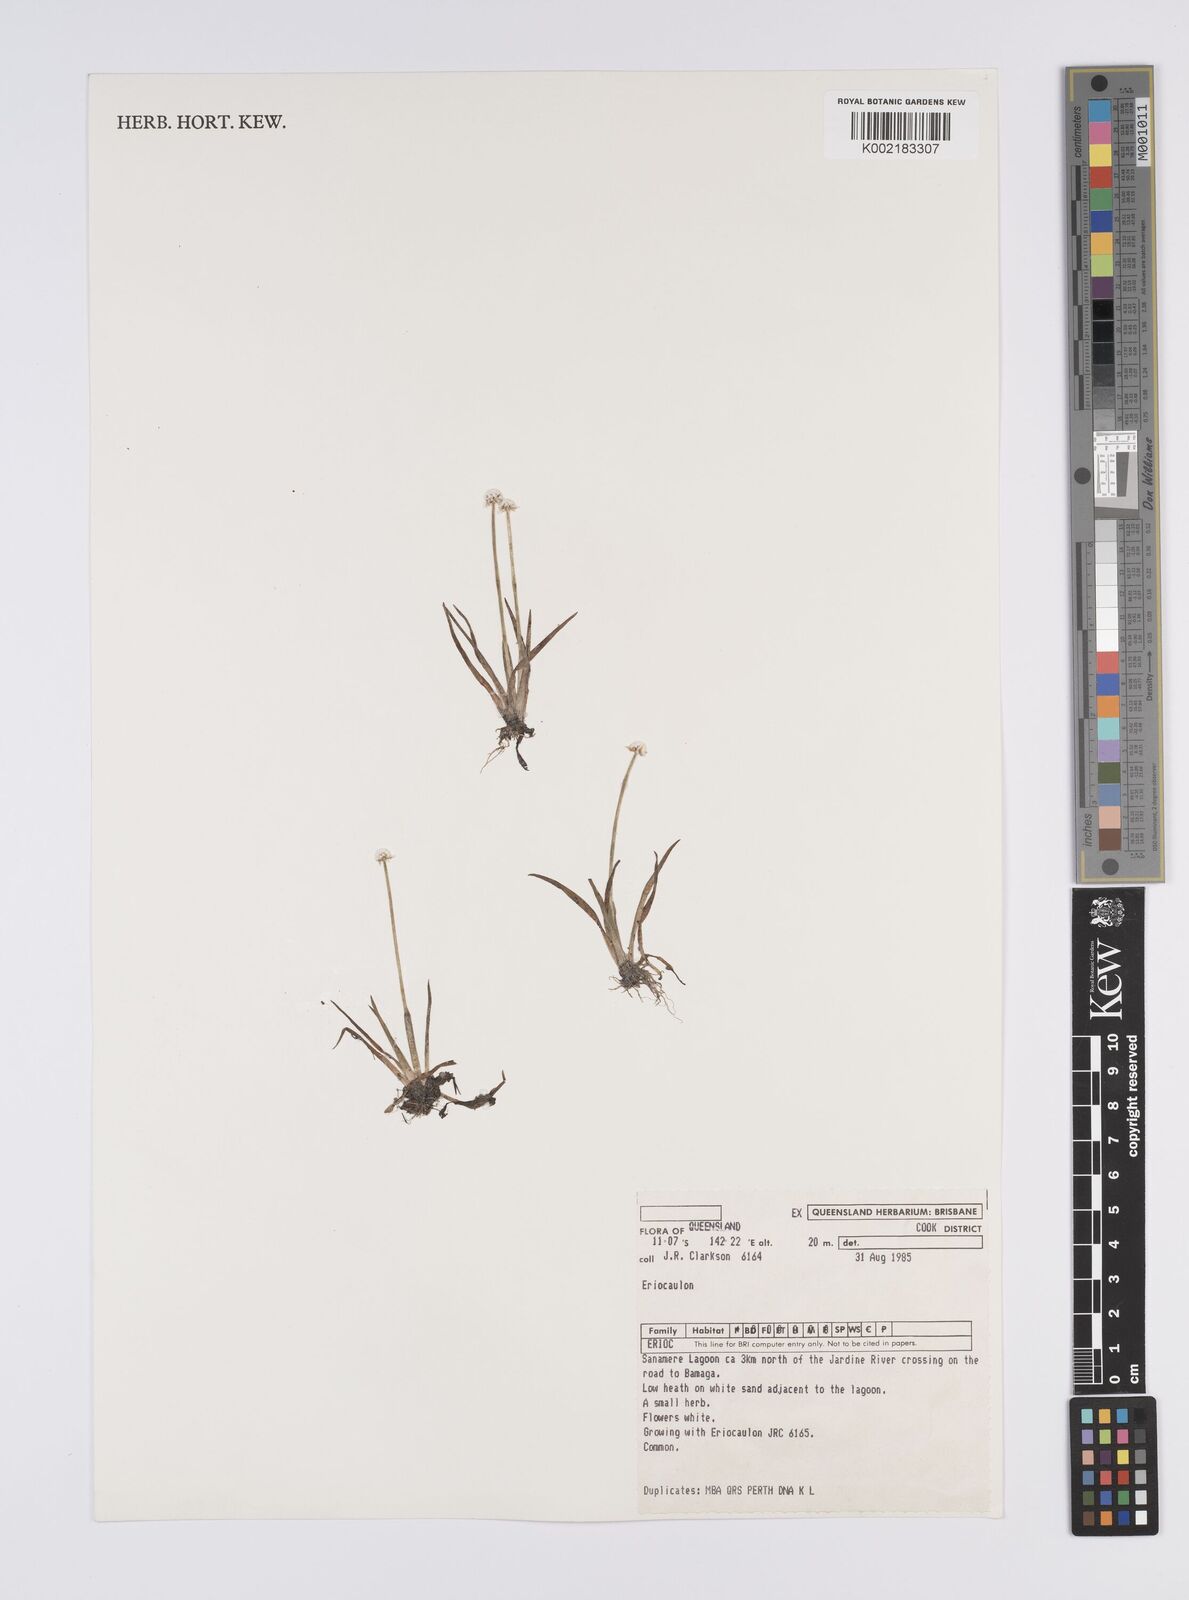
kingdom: Plantae
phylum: Tracheophyta
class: Liliopsida
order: Poales
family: Eriocaulaceae
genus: Eriocaulon
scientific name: Eriocaulon
